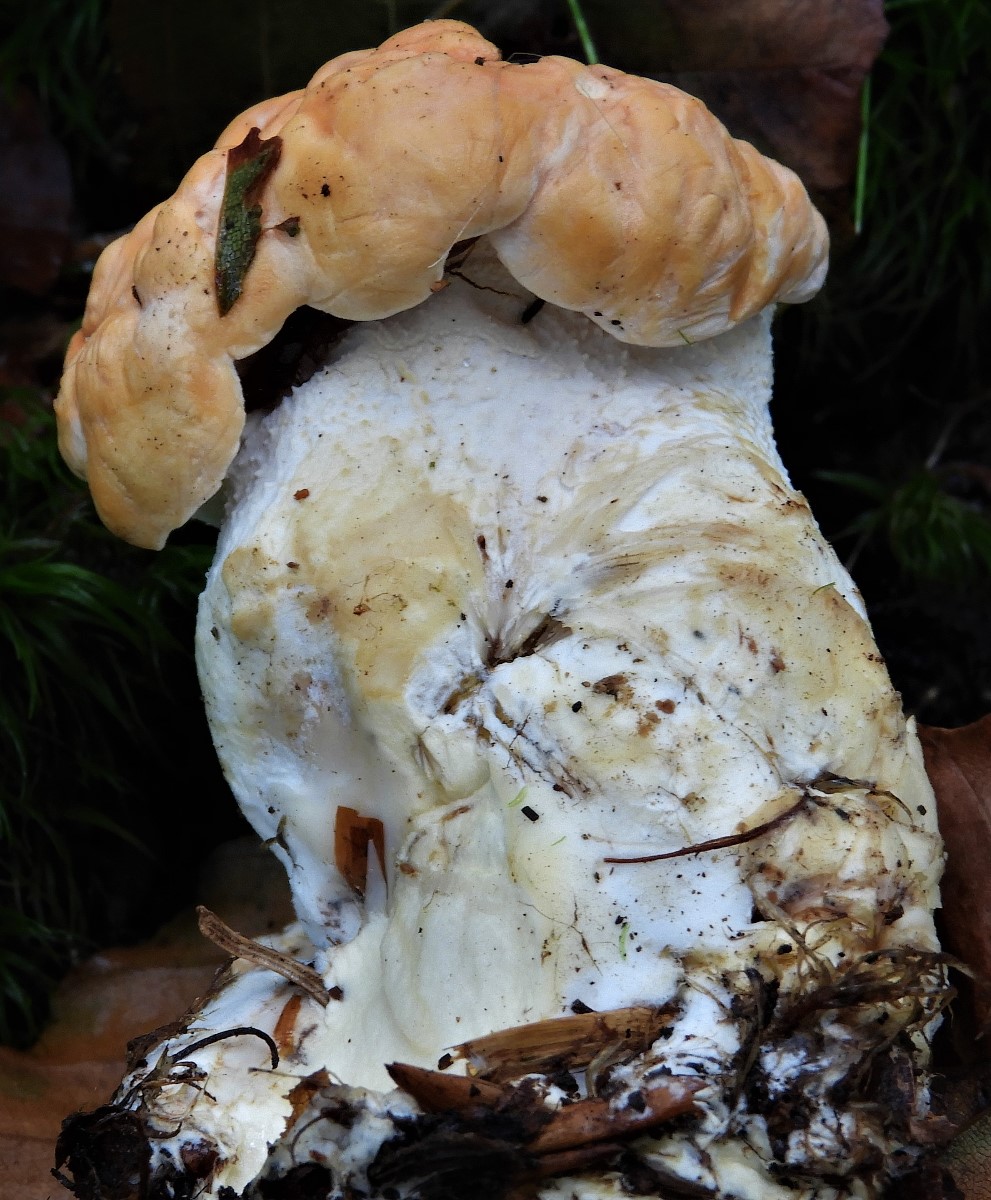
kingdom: Fungi
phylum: Basidiomycota
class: Agaricomycetes
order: Cantharellales
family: Hydnaceae
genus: Hydnum
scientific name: Hydnum
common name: pigsvamp
